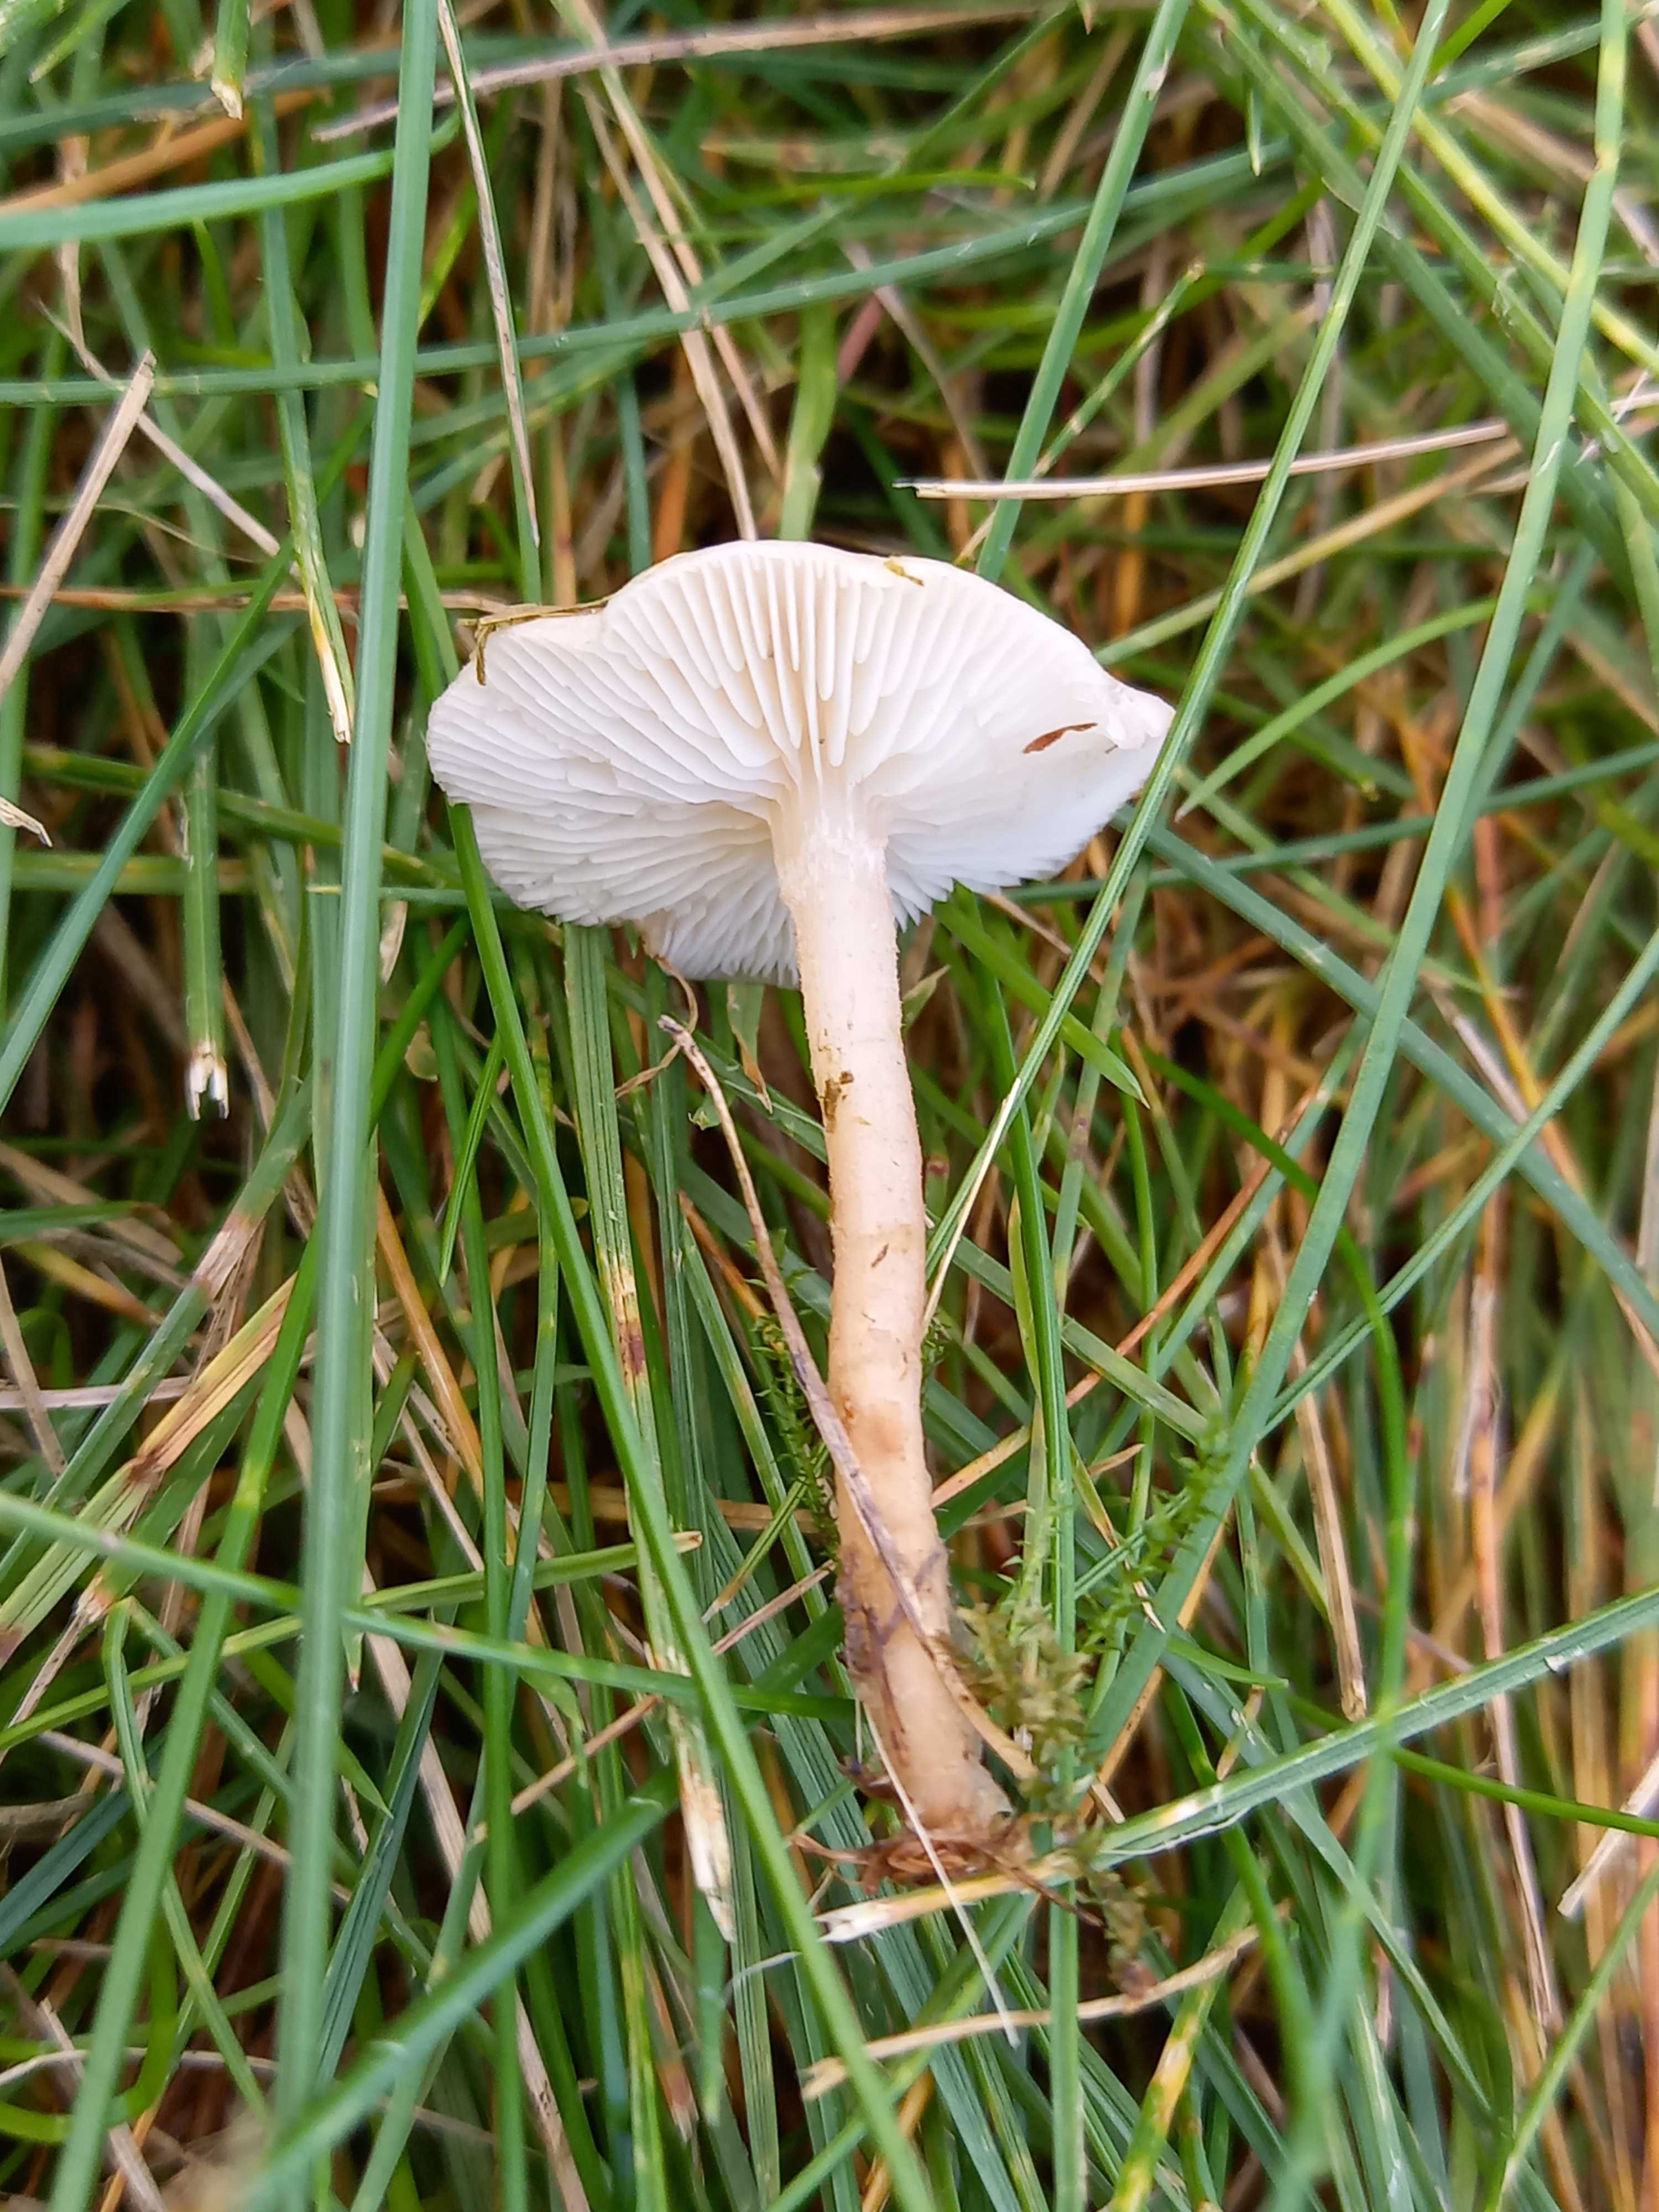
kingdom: Fungi
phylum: Basidiomycota
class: Agaricomycetes
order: Agaricales
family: Lyophyllaceae
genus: Calocybe
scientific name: Calocybe carnea
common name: rosa fagerhat
